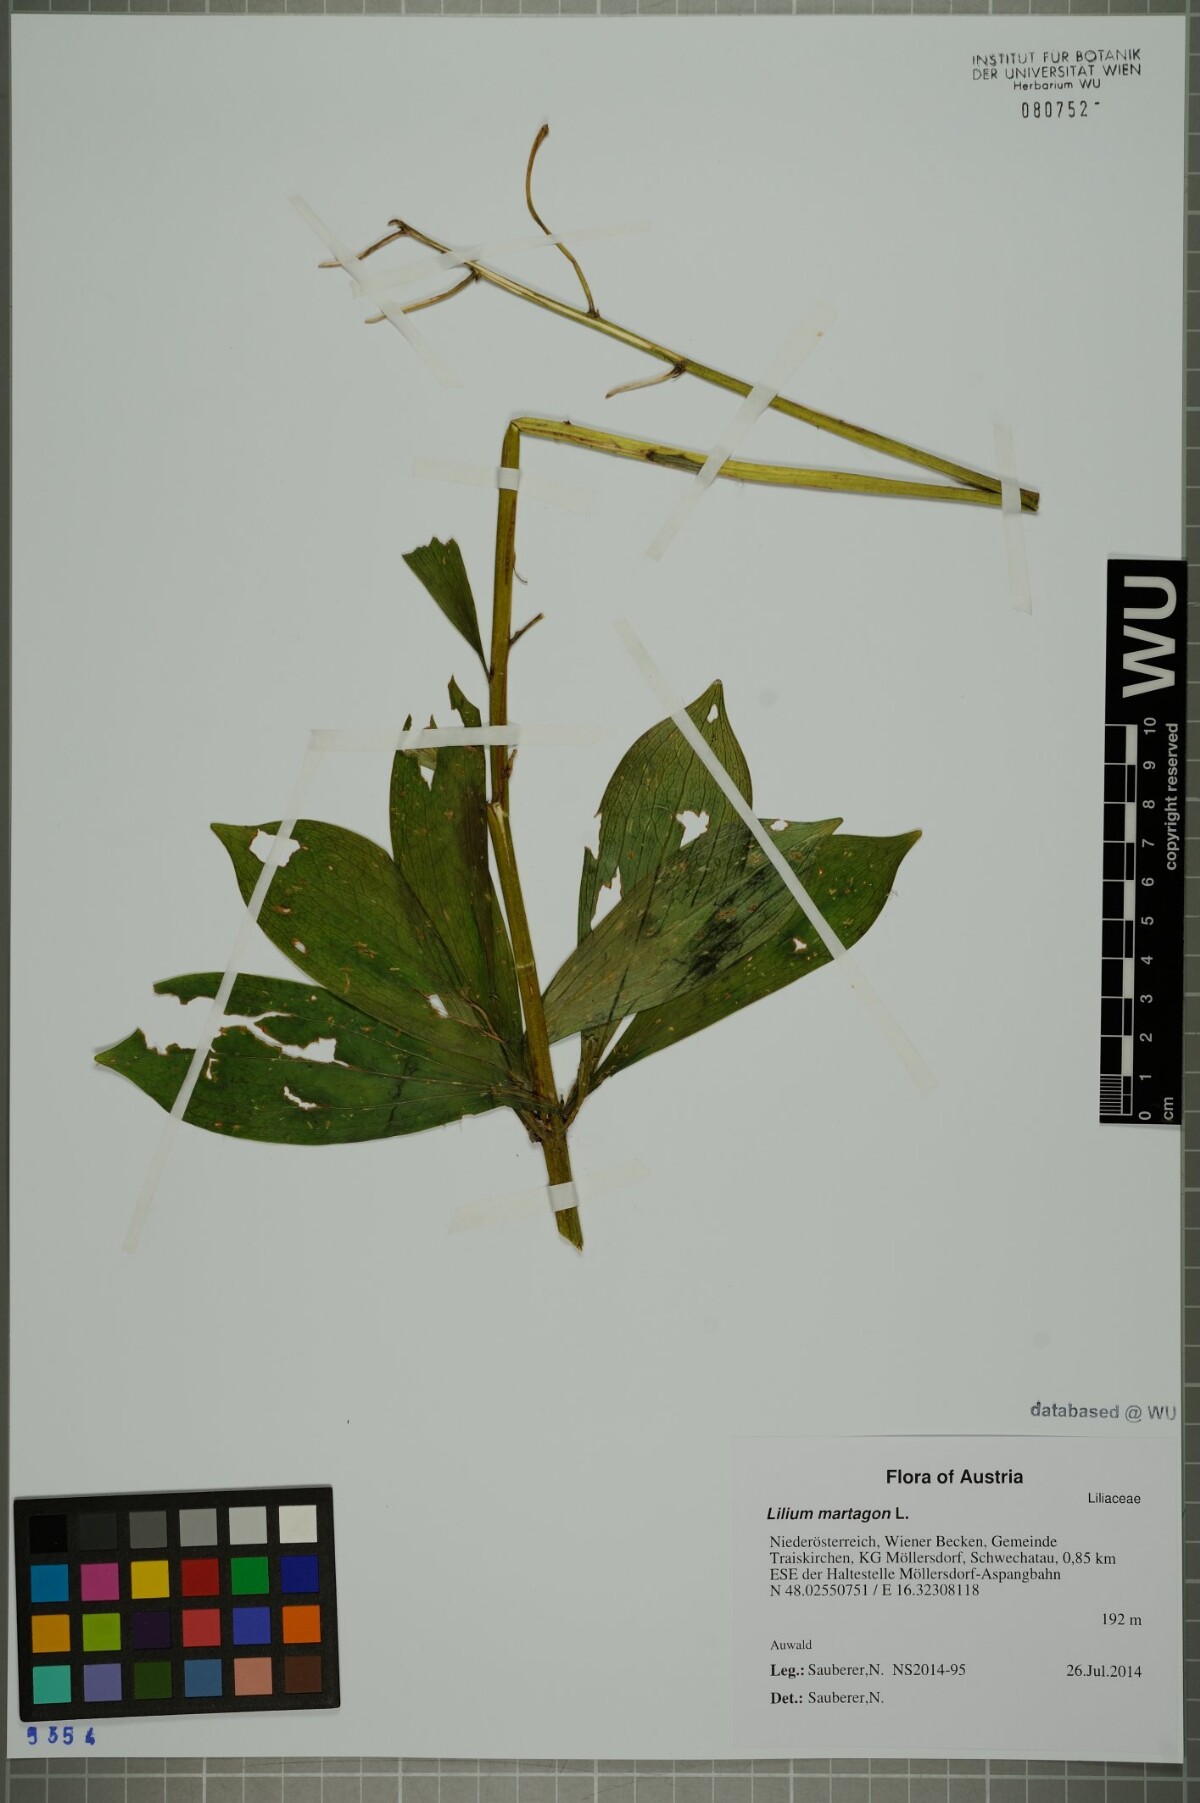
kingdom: Plantae
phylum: Tracheophyta
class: Liliopsida
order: Liliales
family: Liliaceae
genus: Lilium
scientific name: Lilium martagon
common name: Martagon lily
